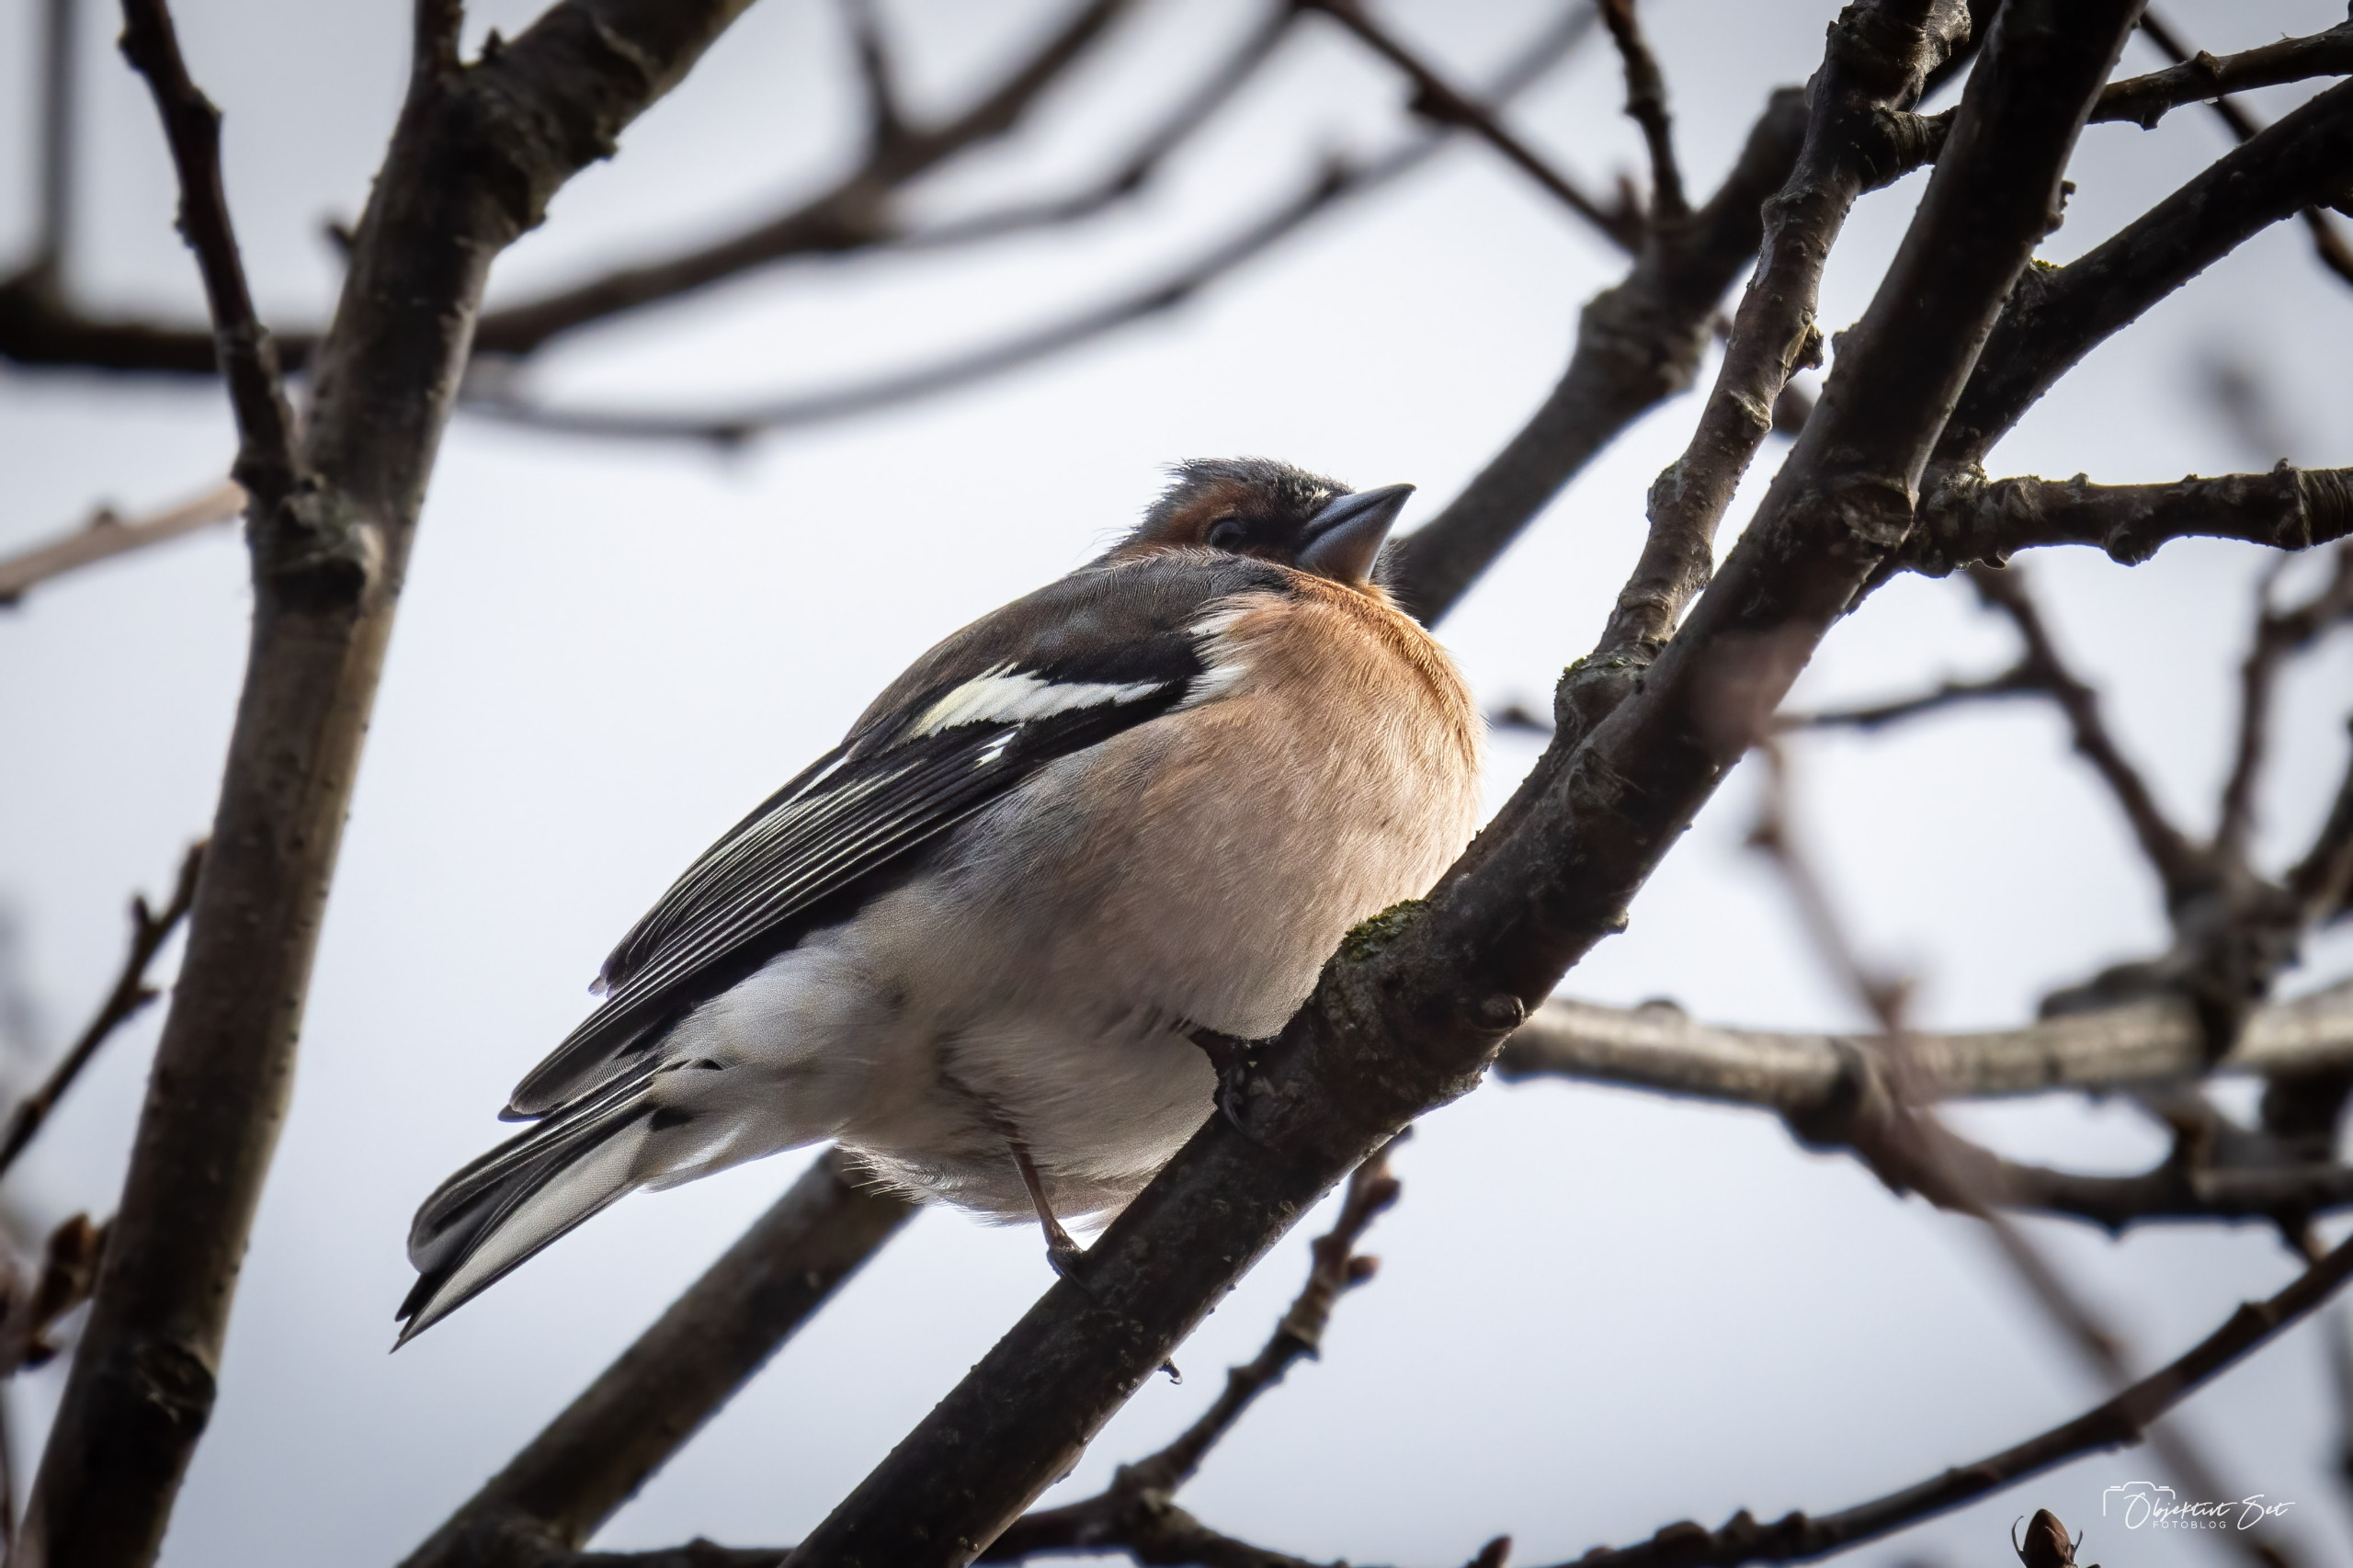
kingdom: Animalia
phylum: Chordata
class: Aves
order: Passeriformes
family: Fringillidae
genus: Fringilla
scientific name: Fringilla coelebs
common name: Bogfinke
